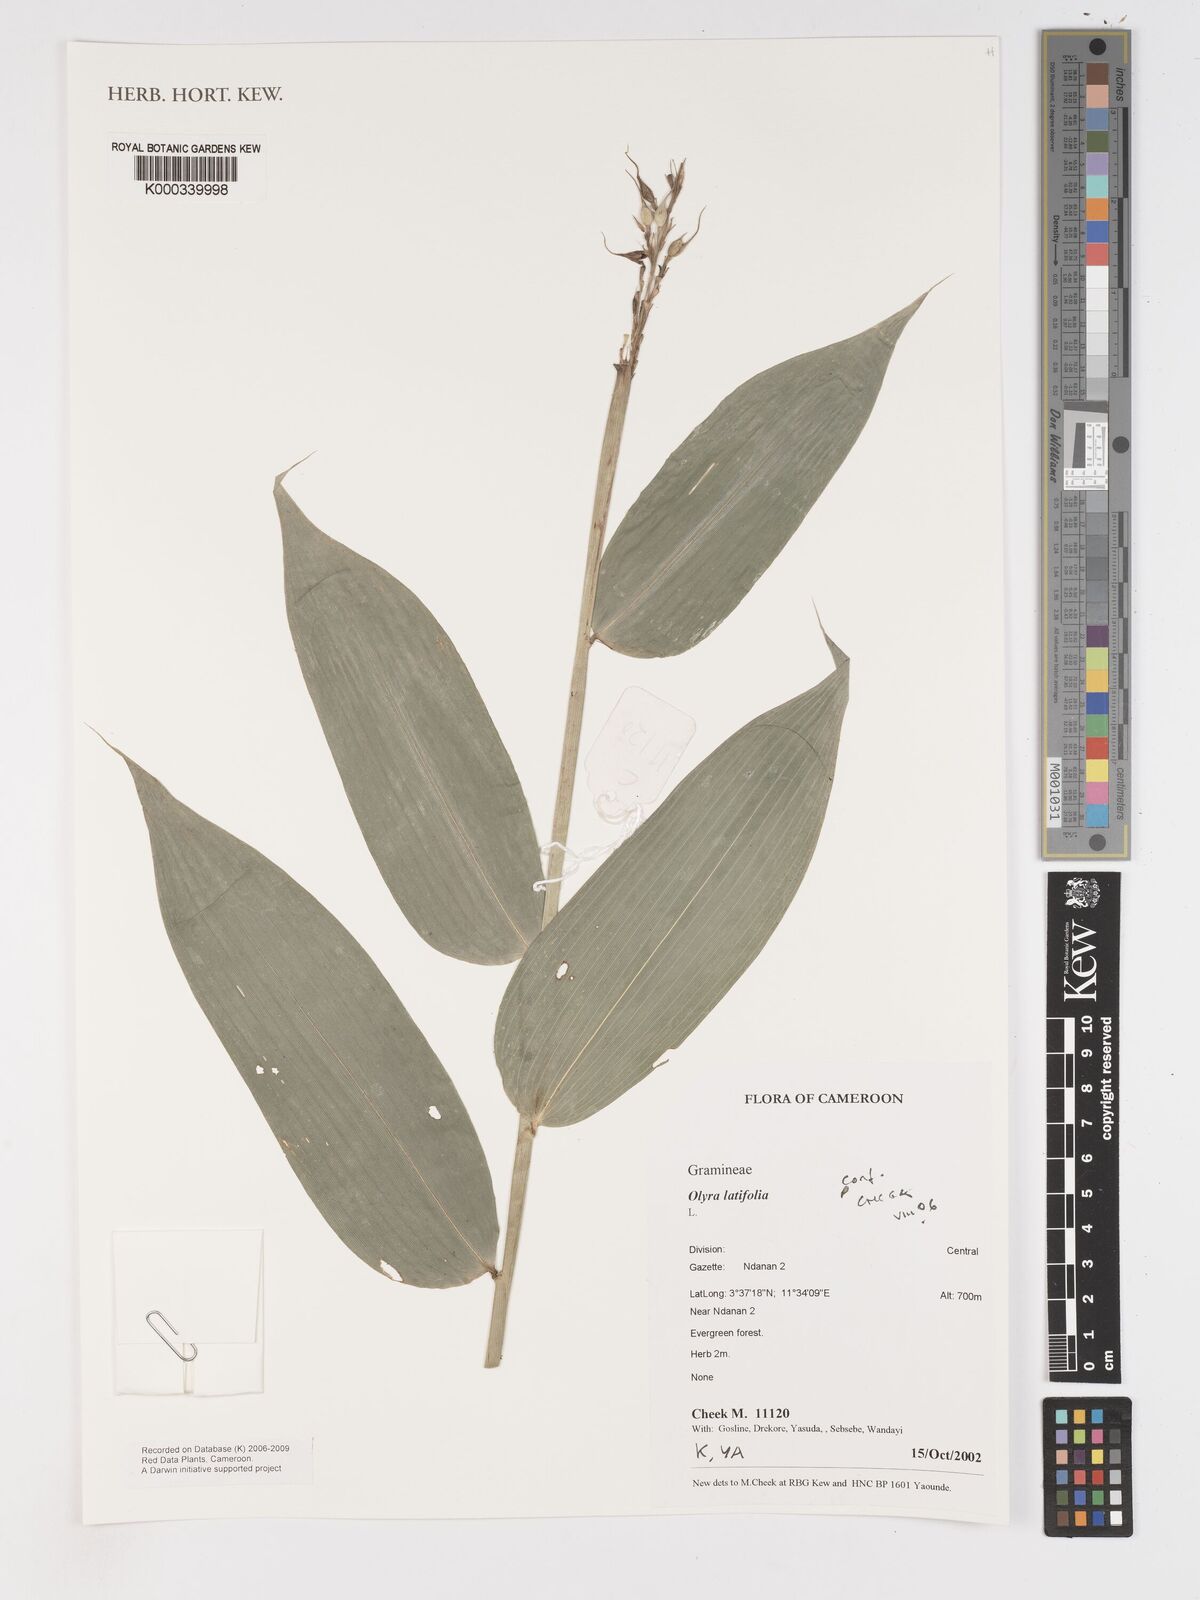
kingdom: Plantae
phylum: Tracheophyta
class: Liliopsida
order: Poales
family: Poaceae
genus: Olyra
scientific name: Olyra latifolia
